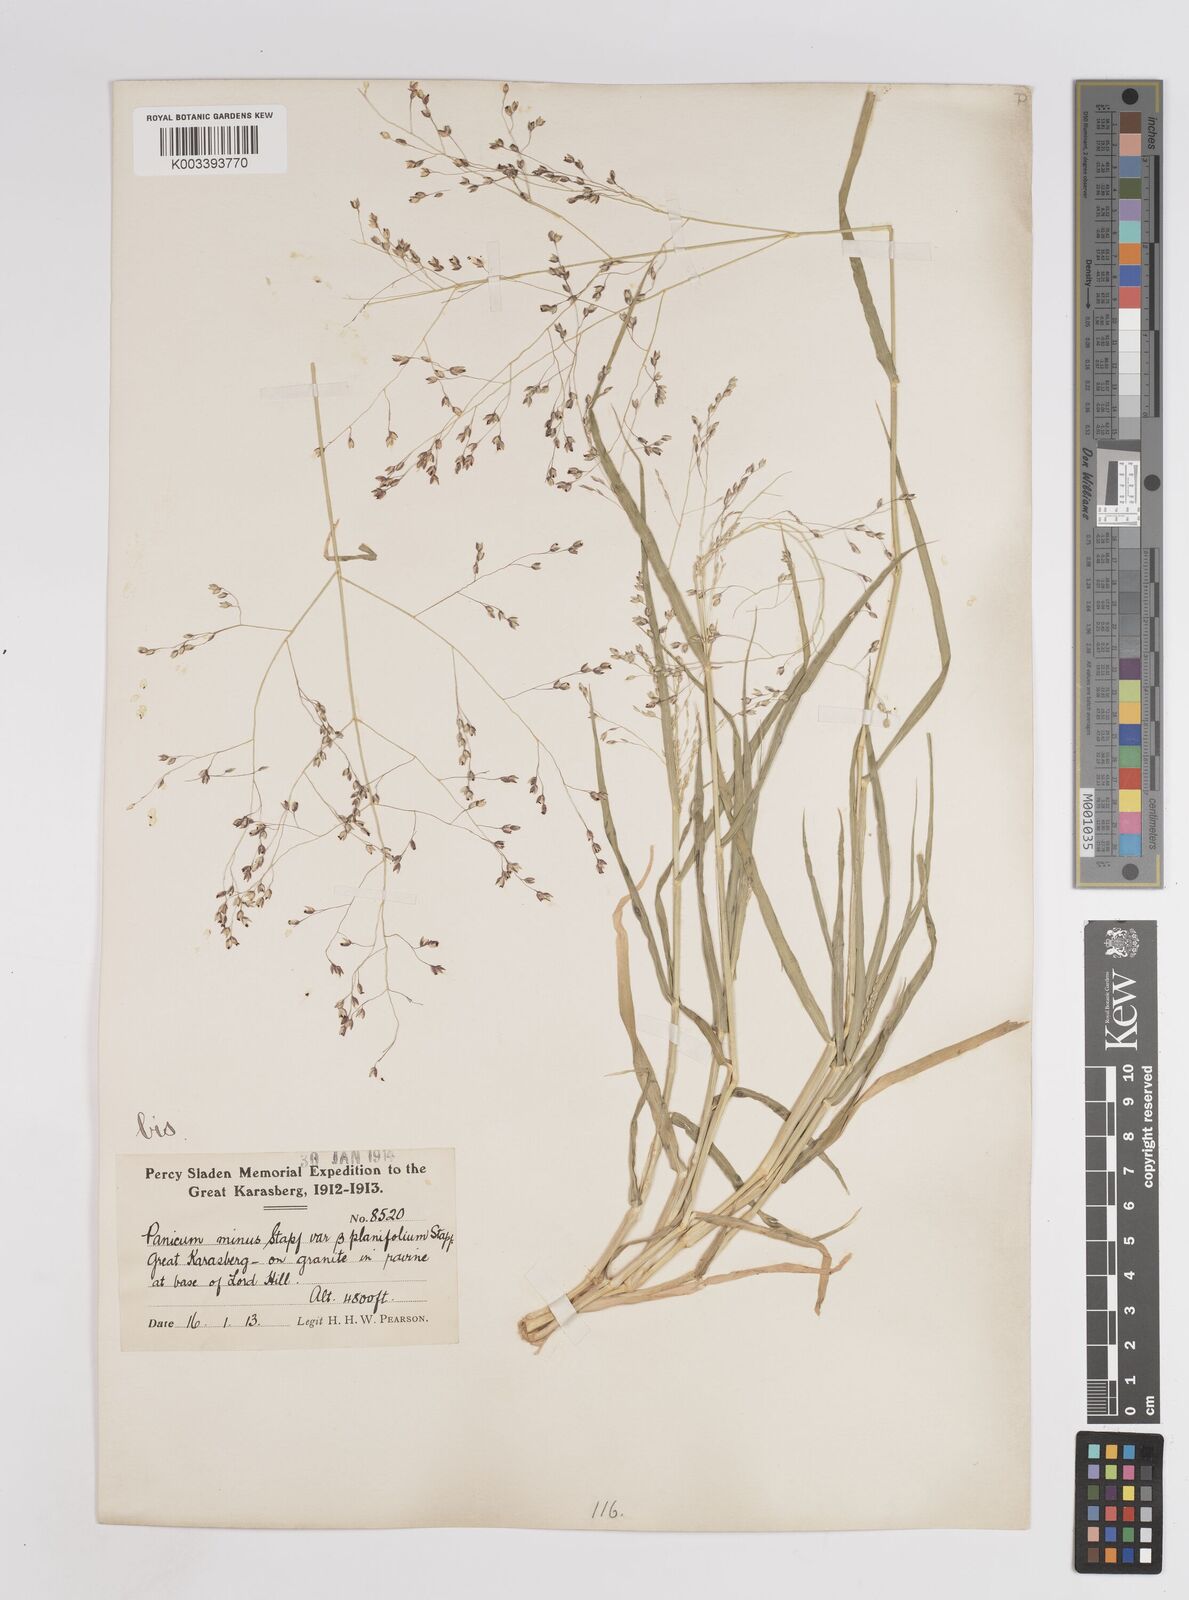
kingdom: Plantae
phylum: Tracheophyta
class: Liliopsida
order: Poales
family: Poaceae
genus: Panicum
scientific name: Panicum arbusculum
